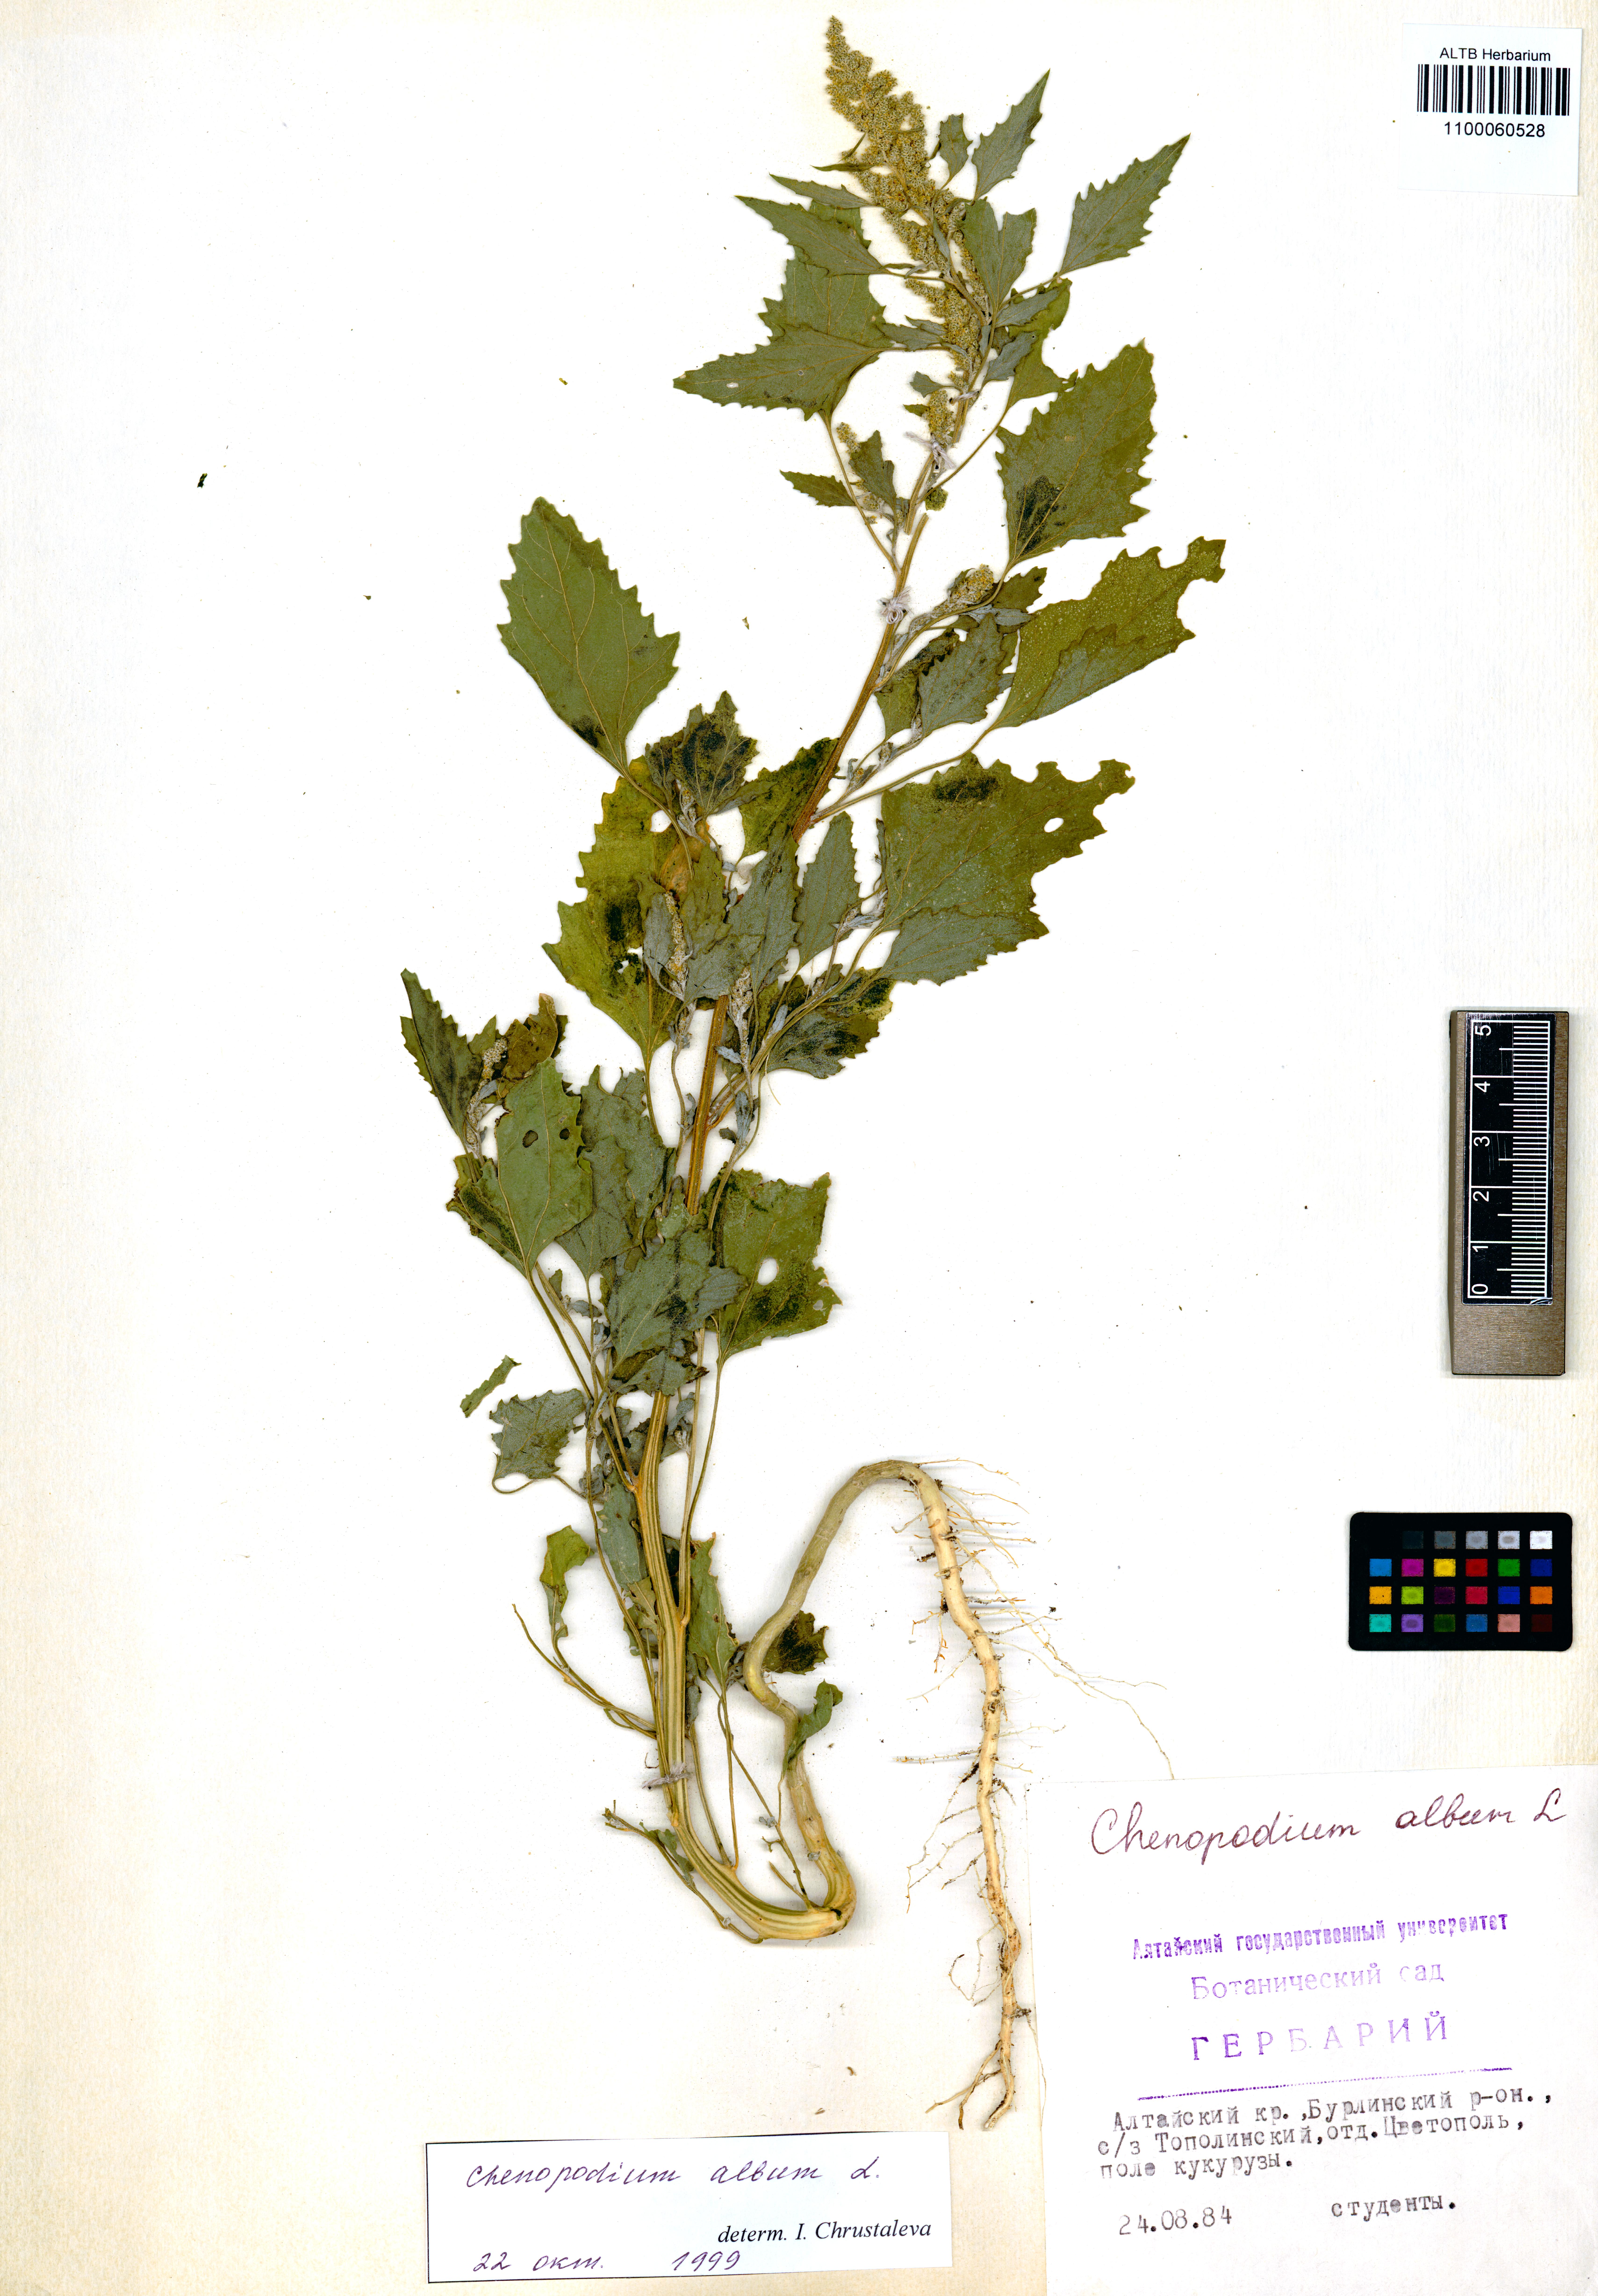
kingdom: Plantae
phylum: Tracheophyta
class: Magnoliopsida
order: Caryophyllales
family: Amaranthaceae
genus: Chenopodium
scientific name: Chenopodium album
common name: Fat-hen
